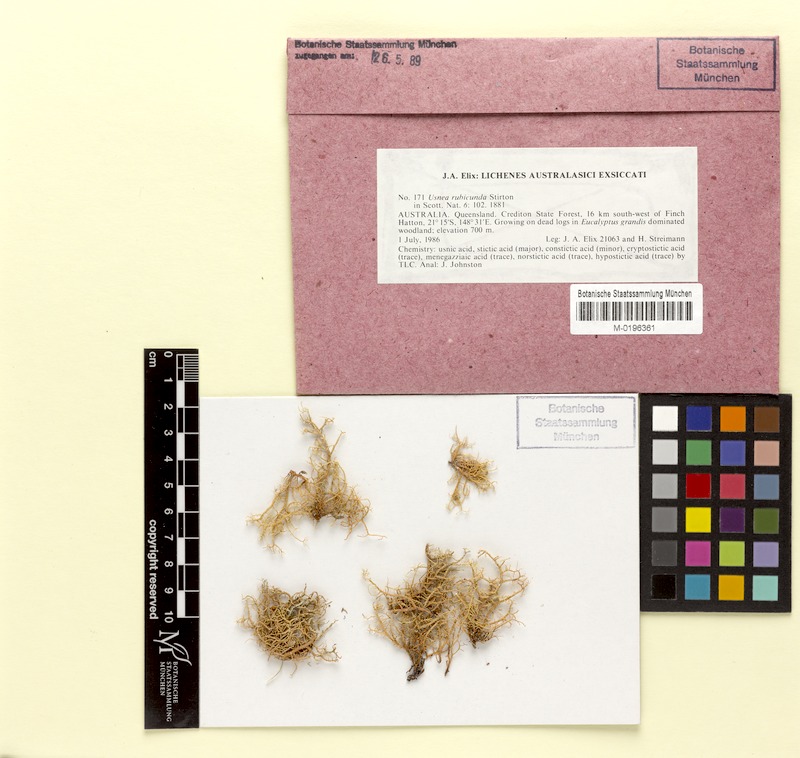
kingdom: Fungi
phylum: Ascomycota
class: Lecanoromycetes
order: Lecanorales
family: Parmeliaceae
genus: Usnea
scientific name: Usnea rubicunda
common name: Red beard lichen
